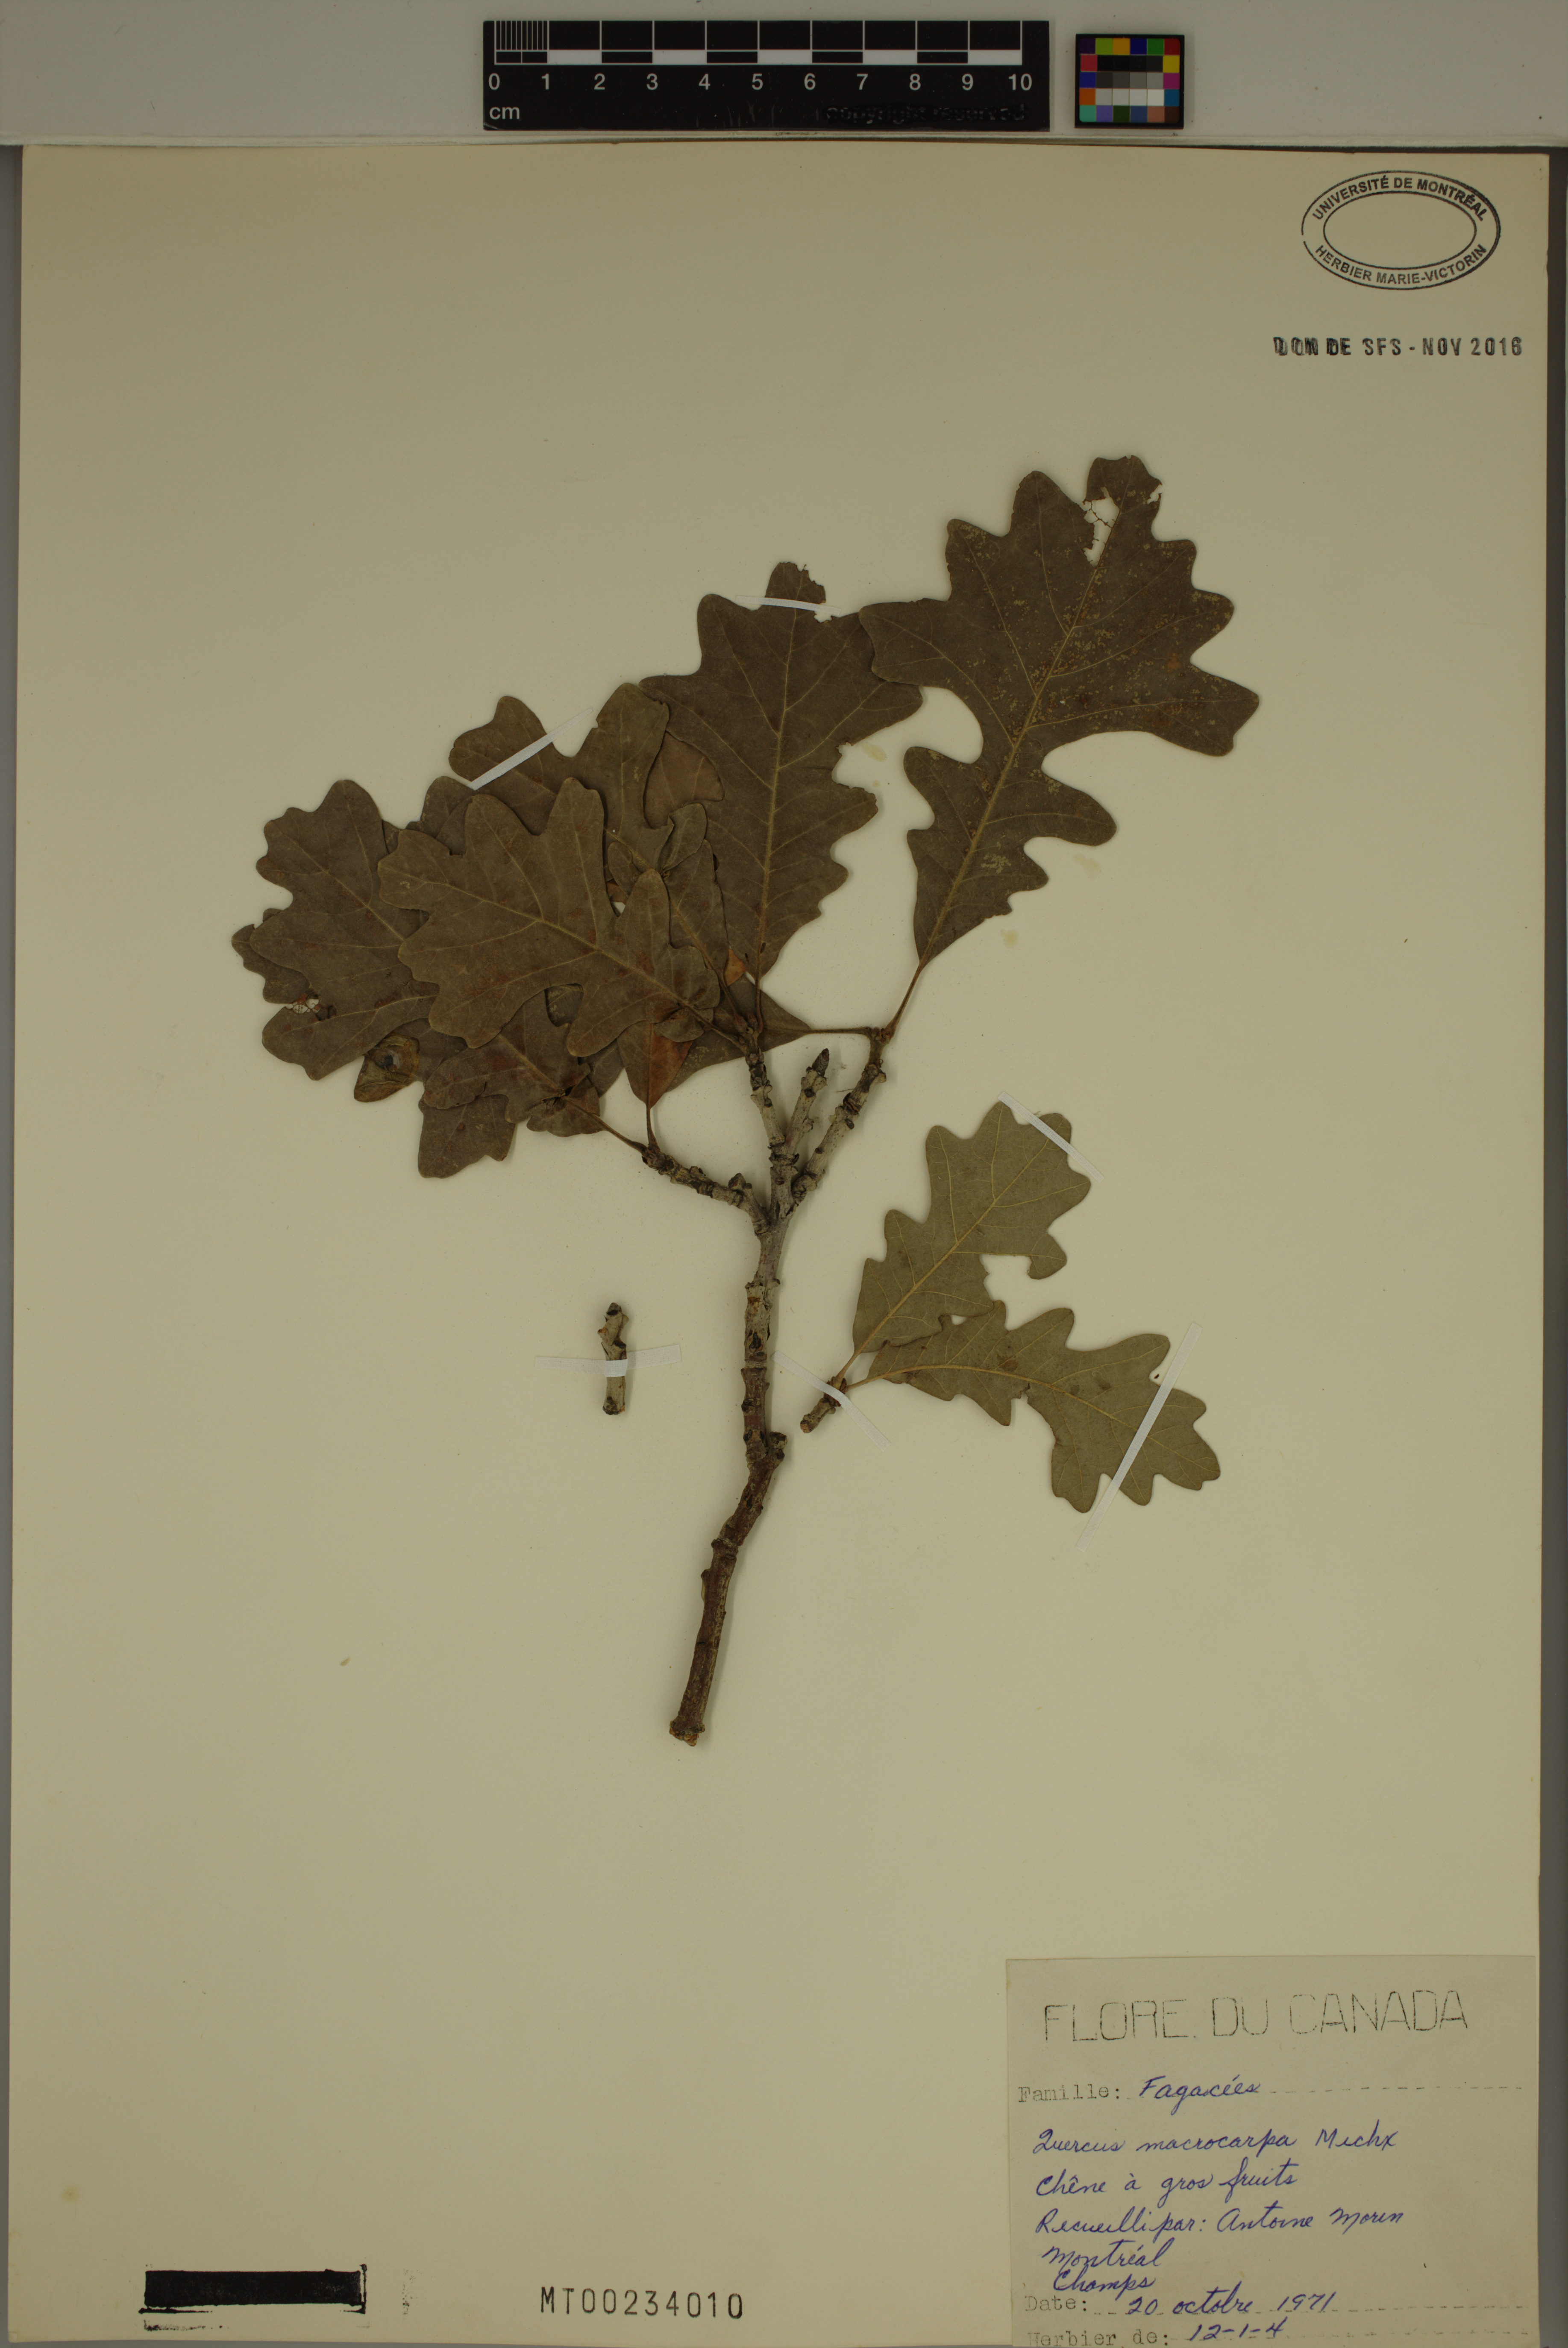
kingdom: Plantae
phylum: Tracheophyta
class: Magnoliopsida
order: Fagales
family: Fagaceae
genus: Quercus
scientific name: Quercus macrocarpa
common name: Bur oak
